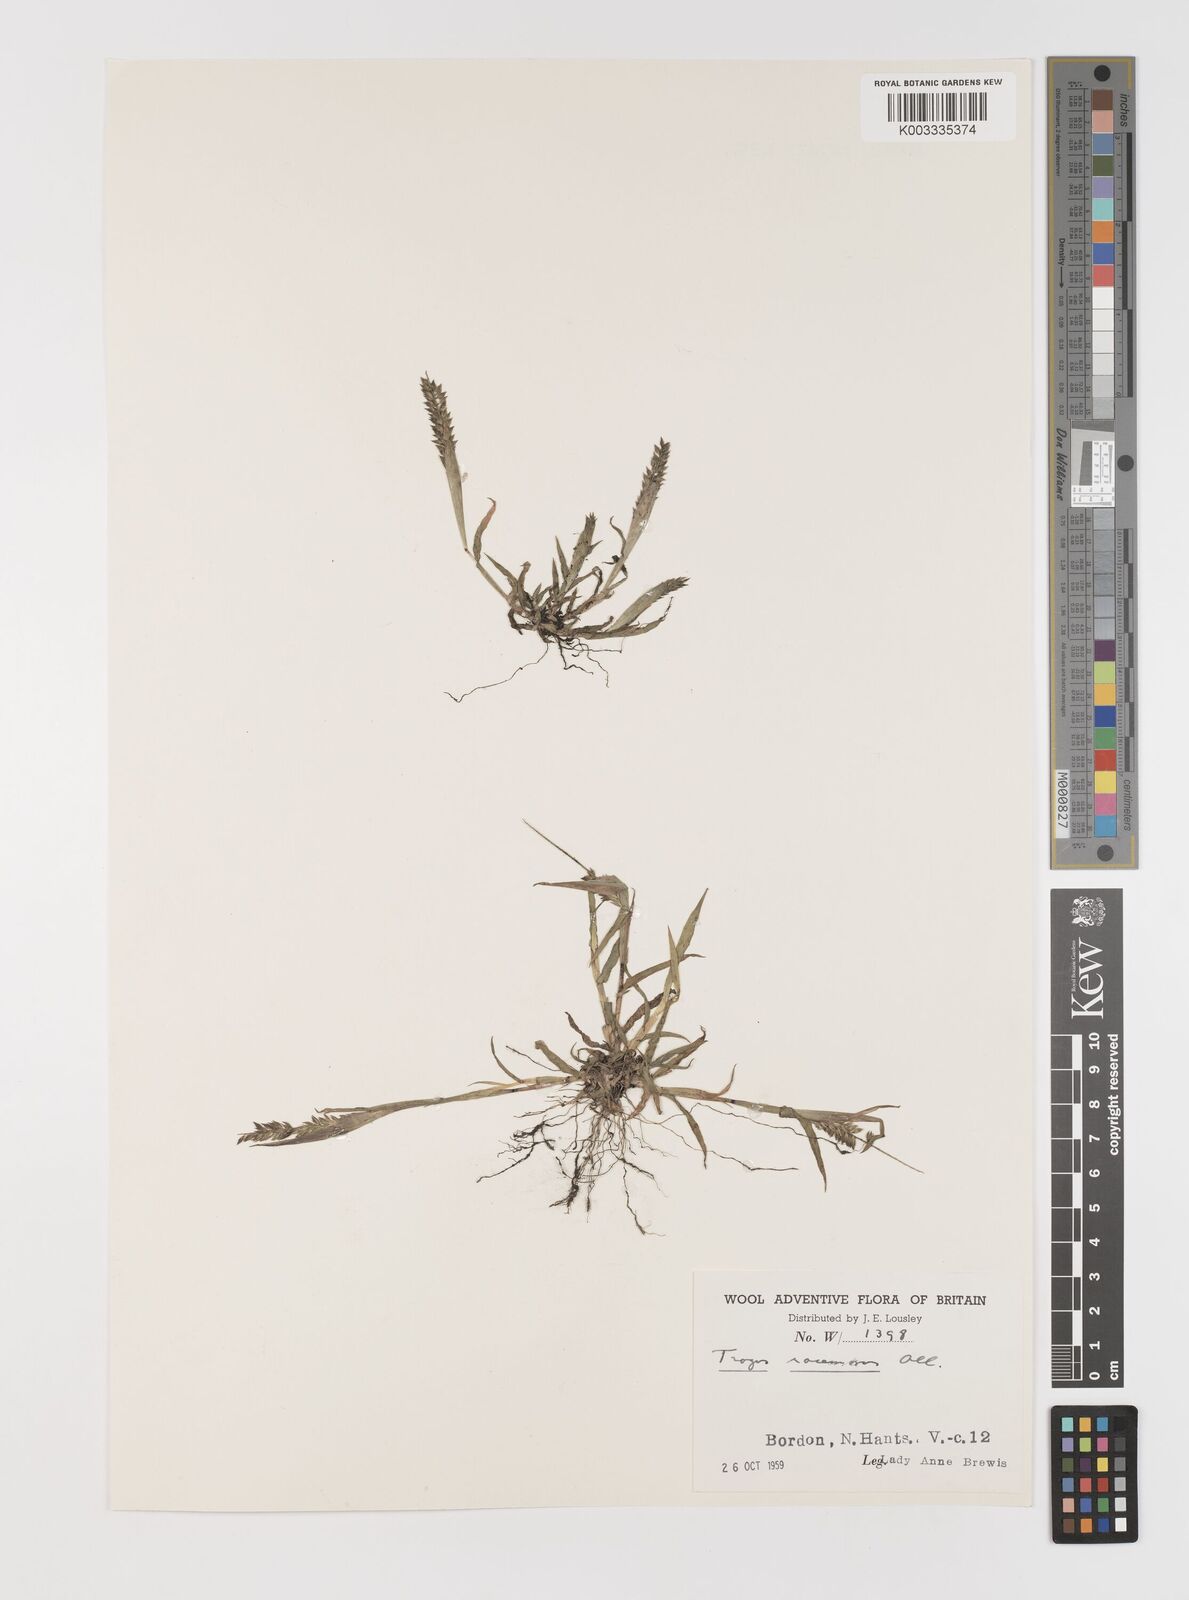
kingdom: Plantae
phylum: Tracheophyta
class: Liliopsida
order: Poales
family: Poaceae
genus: Tragus
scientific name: Tragus australianus
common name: Australian bur-grass
